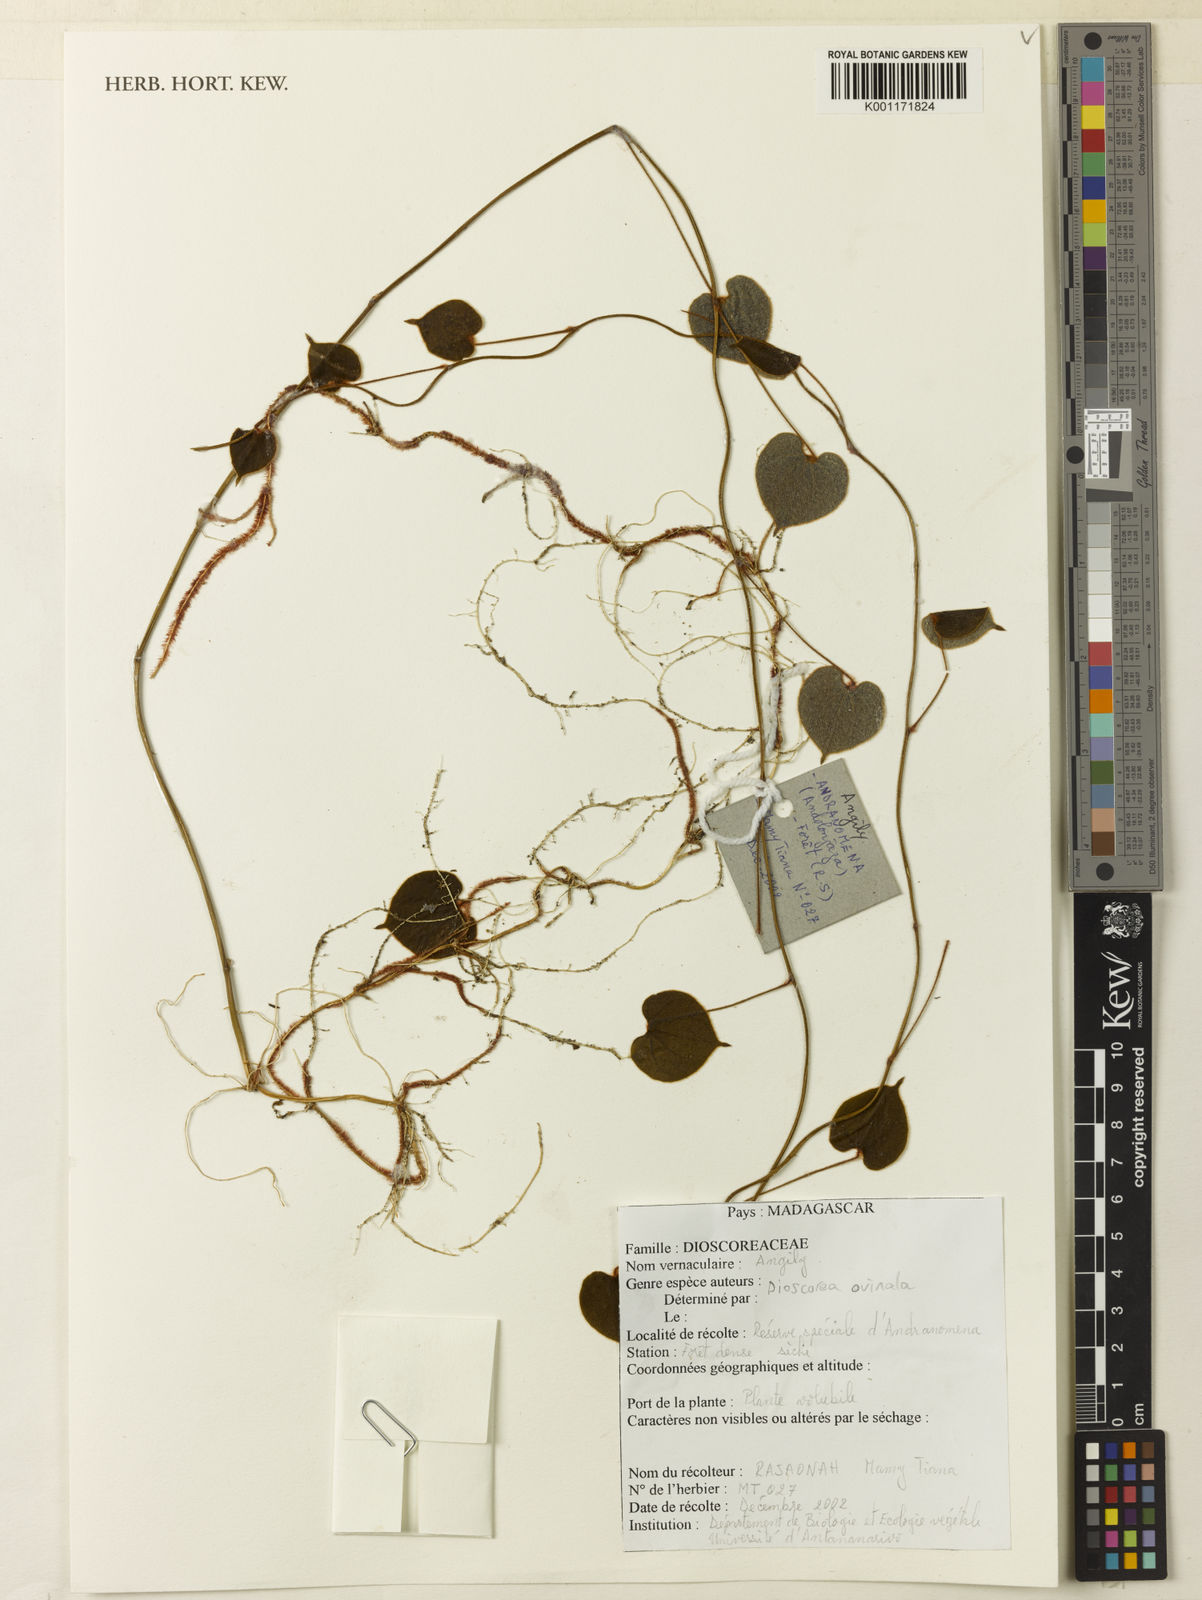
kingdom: Plantae
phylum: Tracheophyta
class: Liliopsida
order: Dioscoreales
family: Dioscoreaceae
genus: Dioscorea
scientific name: Dioscorea ovinala
